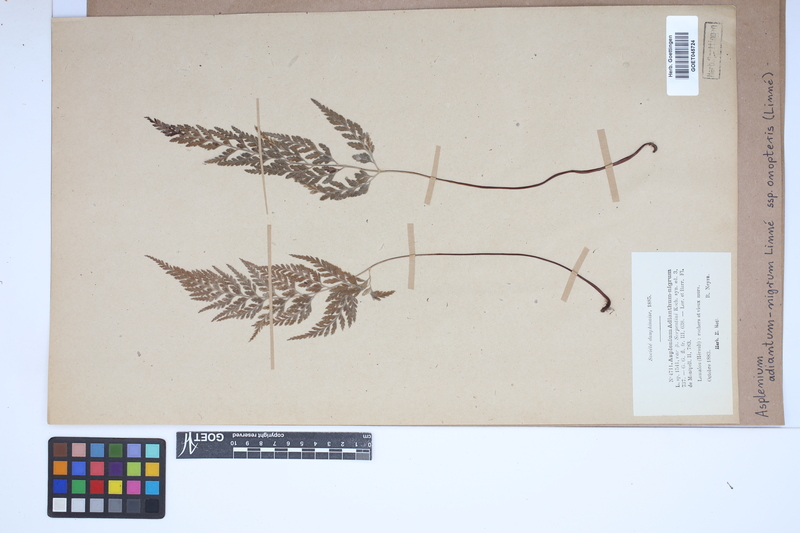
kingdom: Plantae
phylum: Tracheophyta
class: Polypodiopsida
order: Polypodiales
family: Aspleniaceae
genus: Asplenium
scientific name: Asplenium onopteris
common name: Irish spleenwort
